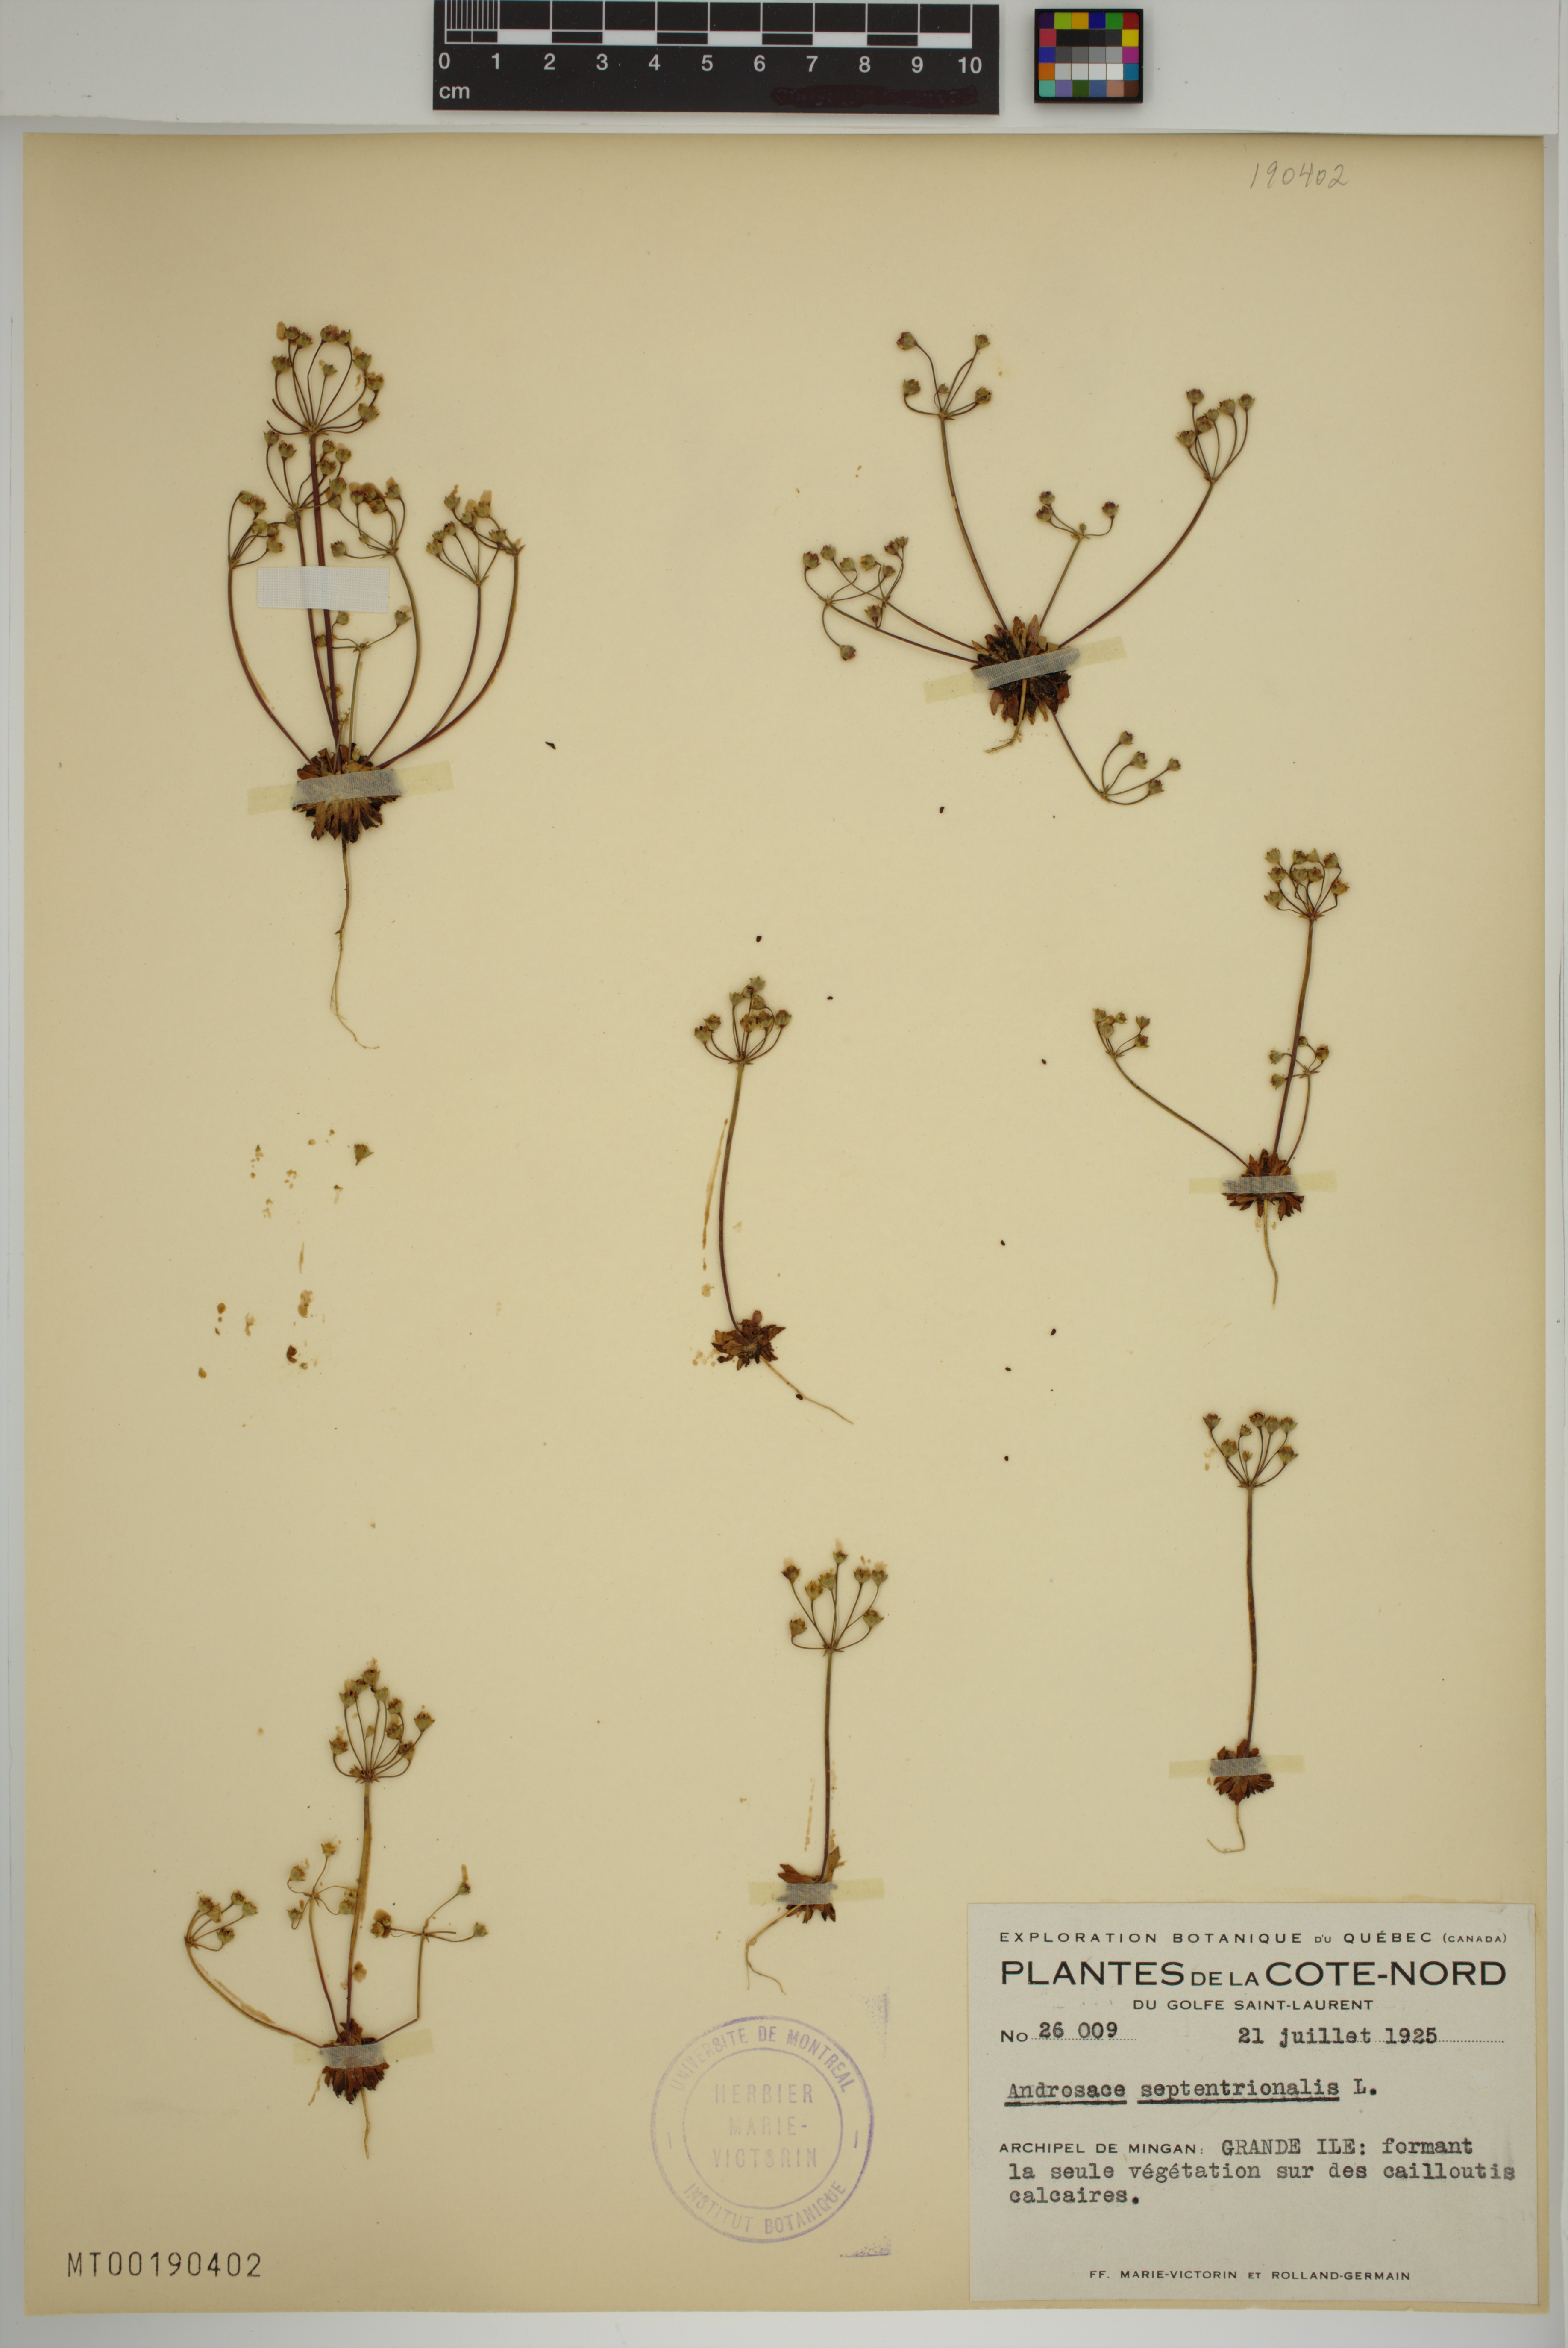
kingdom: Plantae
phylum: Tracheophyta
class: Magnoliopsida
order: Ericales
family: Primulaceae
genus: Androsace
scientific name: Androsace septentrionalis
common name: Hairy northern fairy-candelabra
